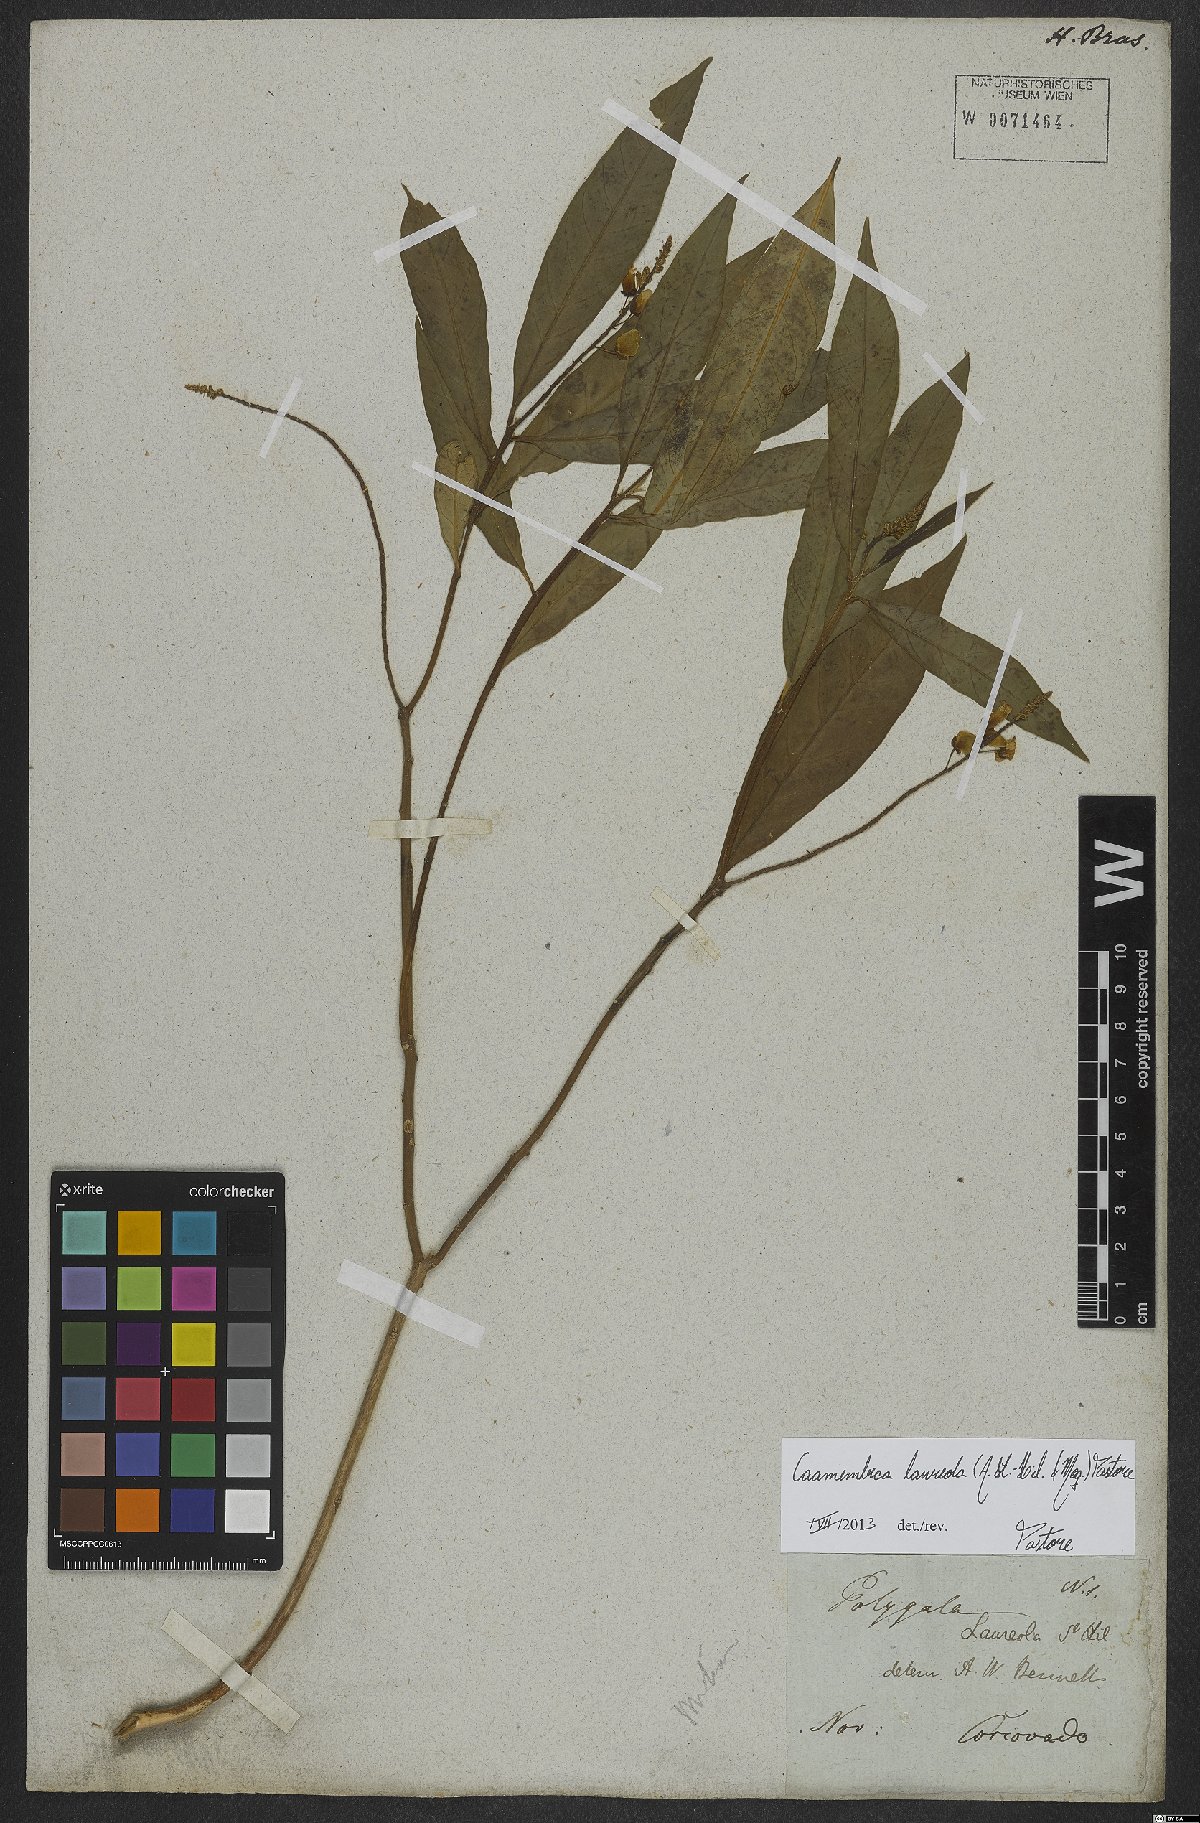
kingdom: Plantae
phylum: Tracheophyta
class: Magnoliopsida
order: Fabales
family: Polygalaceae
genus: Caamembeca
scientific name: Caamembeca salicifolia
